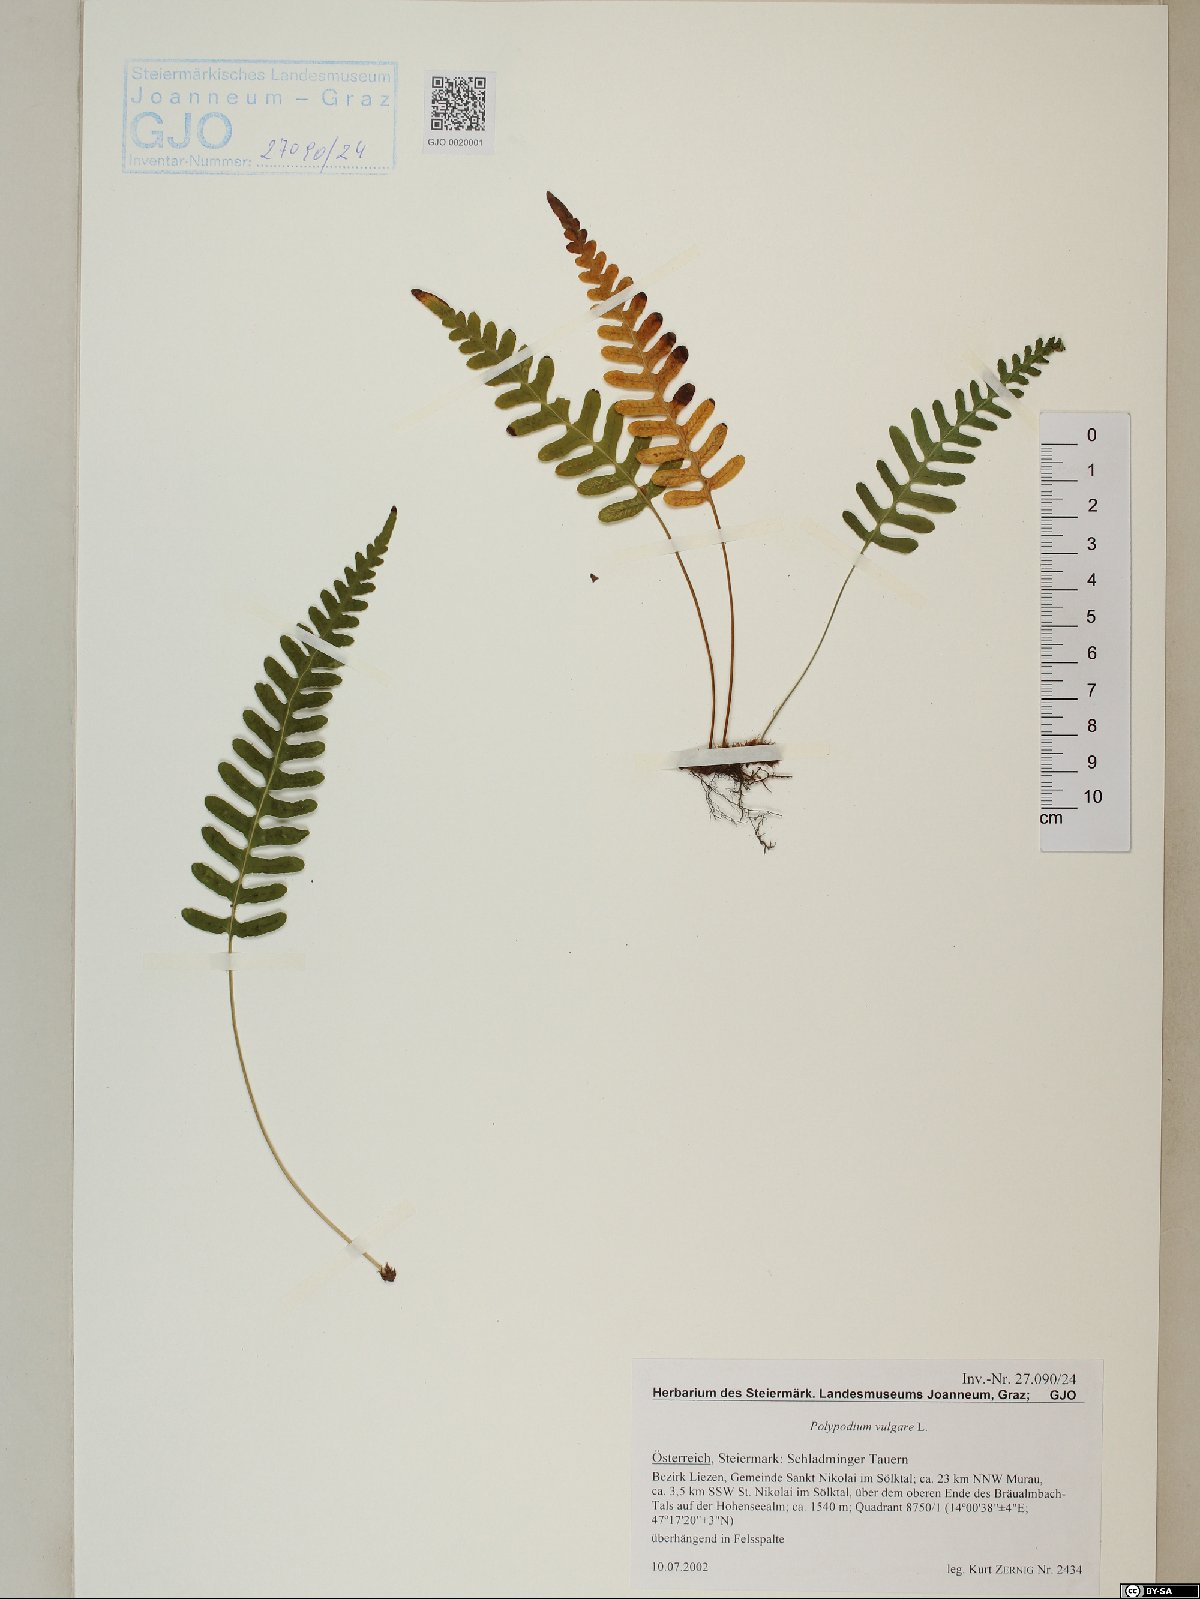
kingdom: Plantae
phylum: Tracheophyta
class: Polypodiopsida
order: Polypodiales
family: Polypodiaceae
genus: Polypodium
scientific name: Polypodium vulgare
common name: Common polypody
